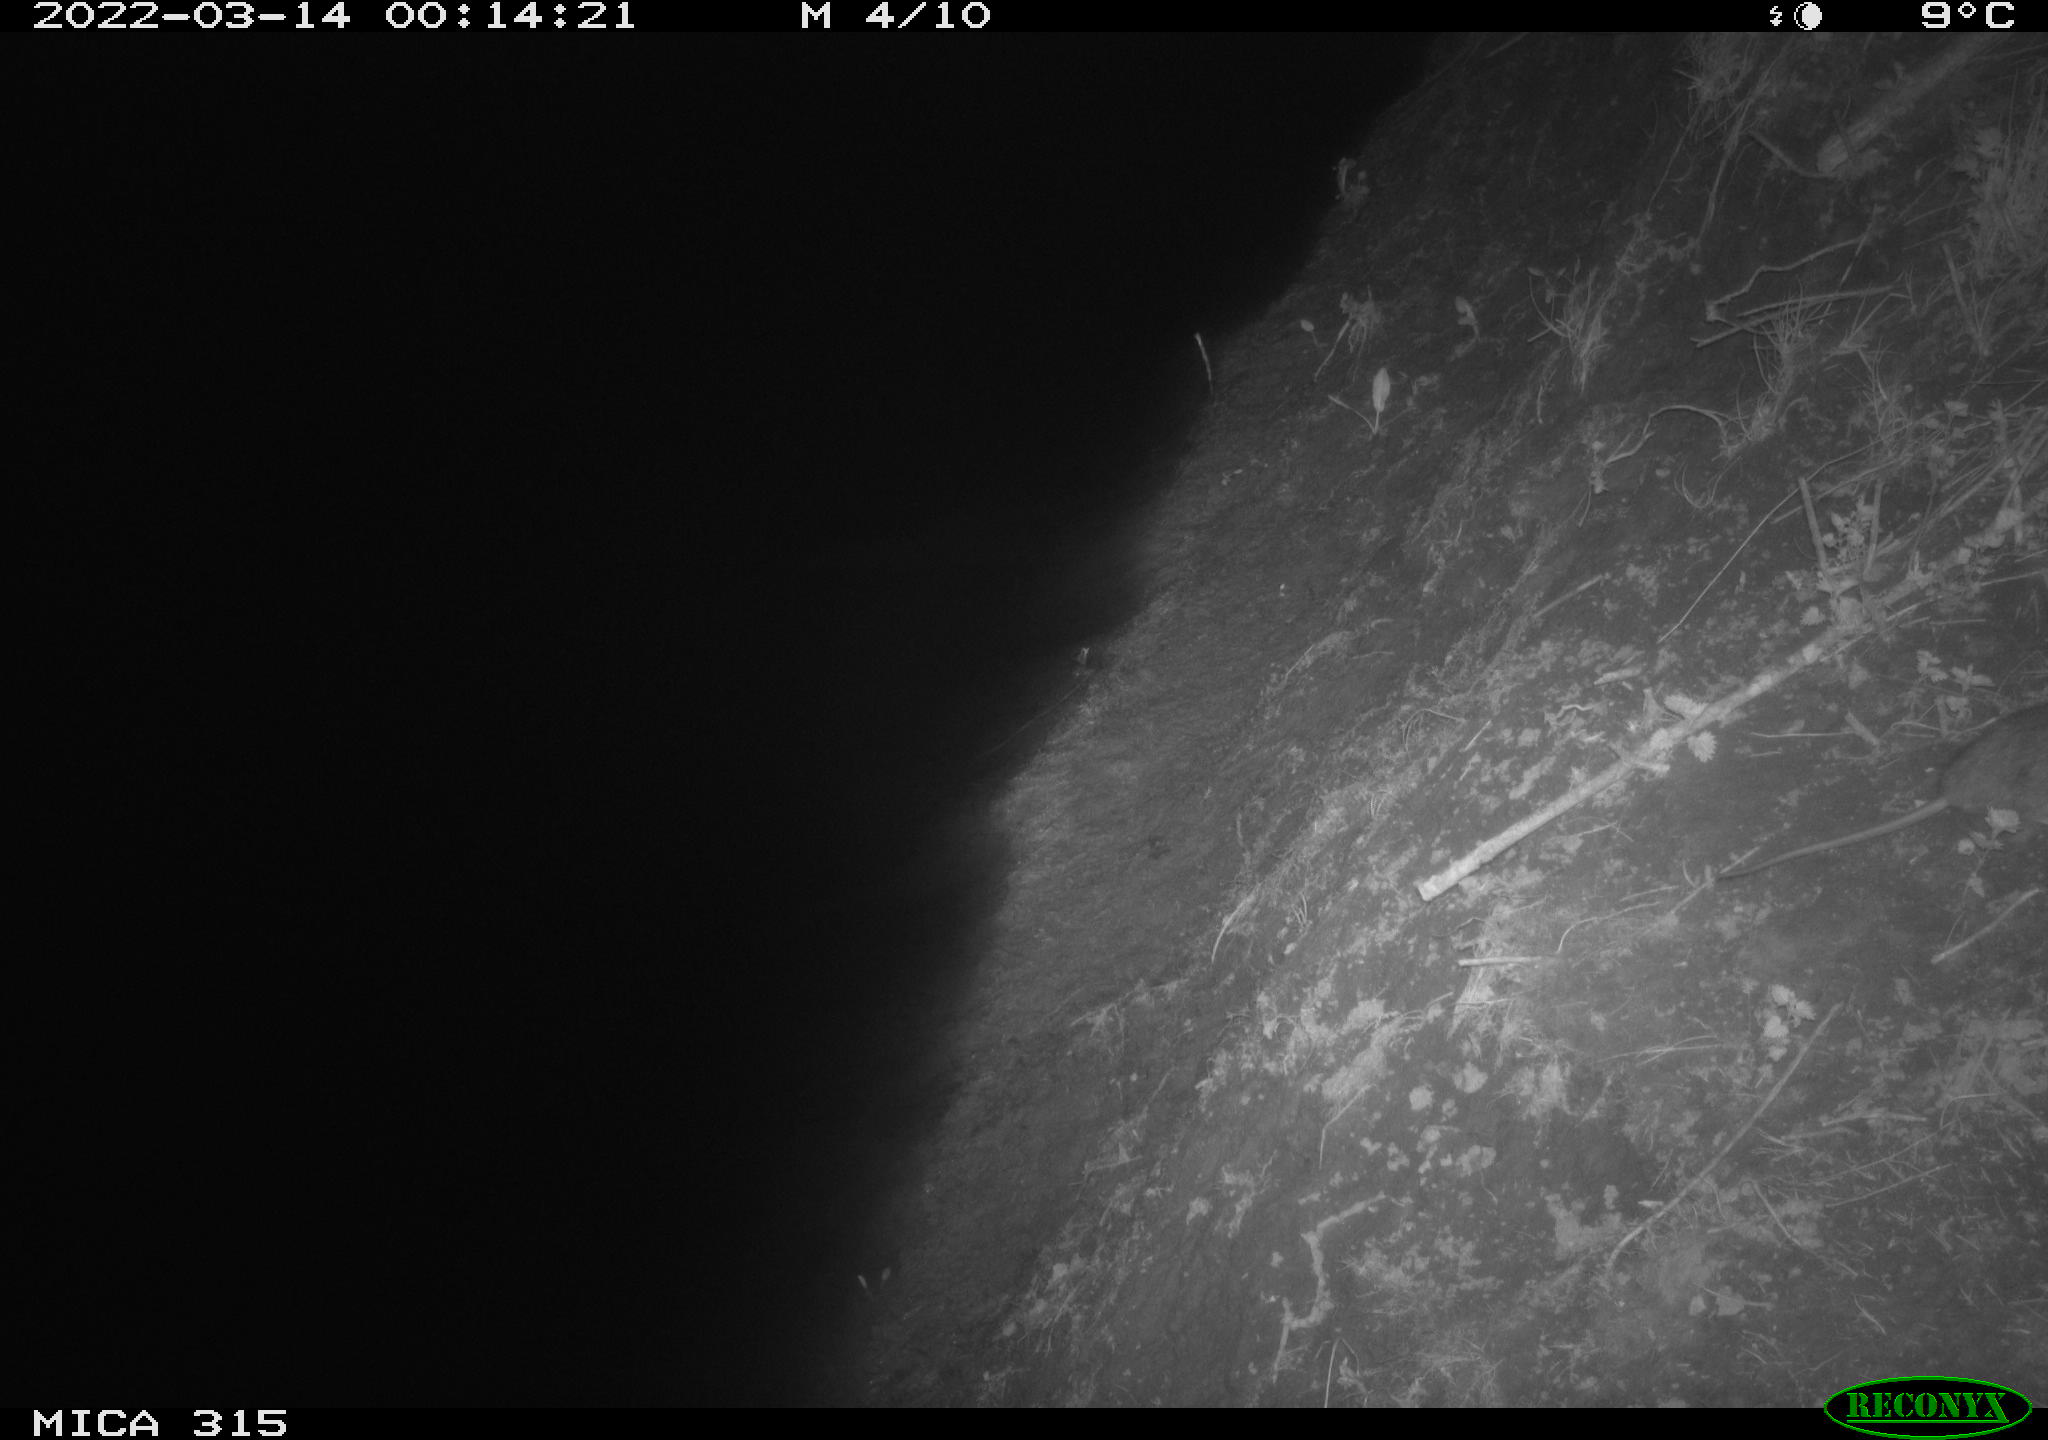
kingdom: Animalia
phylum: Chordata
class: Mammalia
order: Rodentia
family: Muridae
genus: Rattus
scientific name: Rattus norvegicus
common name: Brown rat
